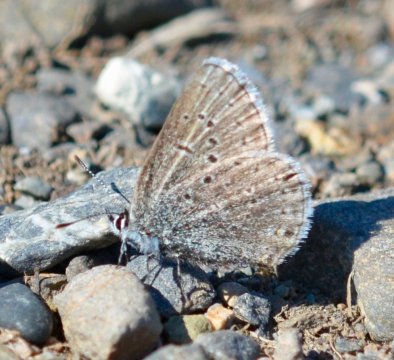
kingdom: Animalia
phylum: Arthropoda
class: Insecta
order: Lepidoptera
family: Lycaenidae
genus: Plebejus
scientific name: Plebejus saepiolus
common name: Greenish Blue
